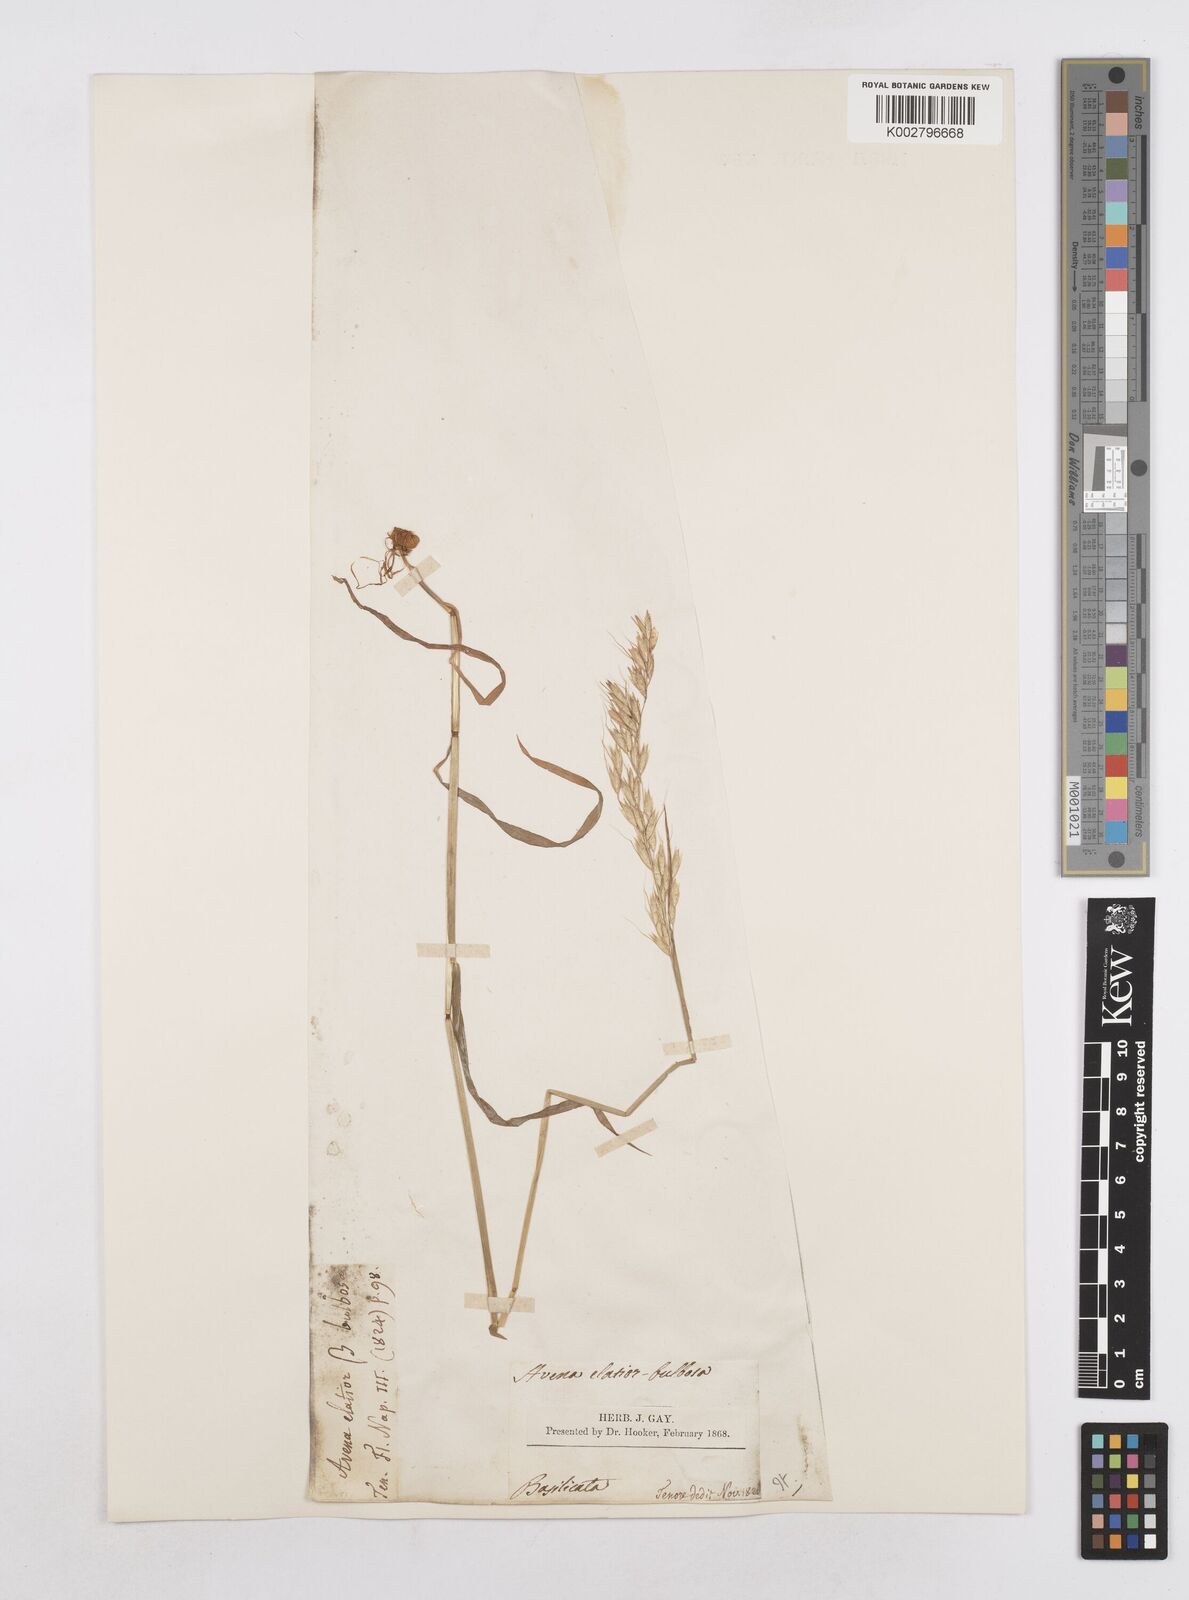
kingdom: Plantae
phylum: Tracheophyta
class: Liliopsida
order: Poales
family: Poaceae
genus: Arrhenatherum
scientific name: Arrhenatherum elatius
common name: Tall oatgrass
